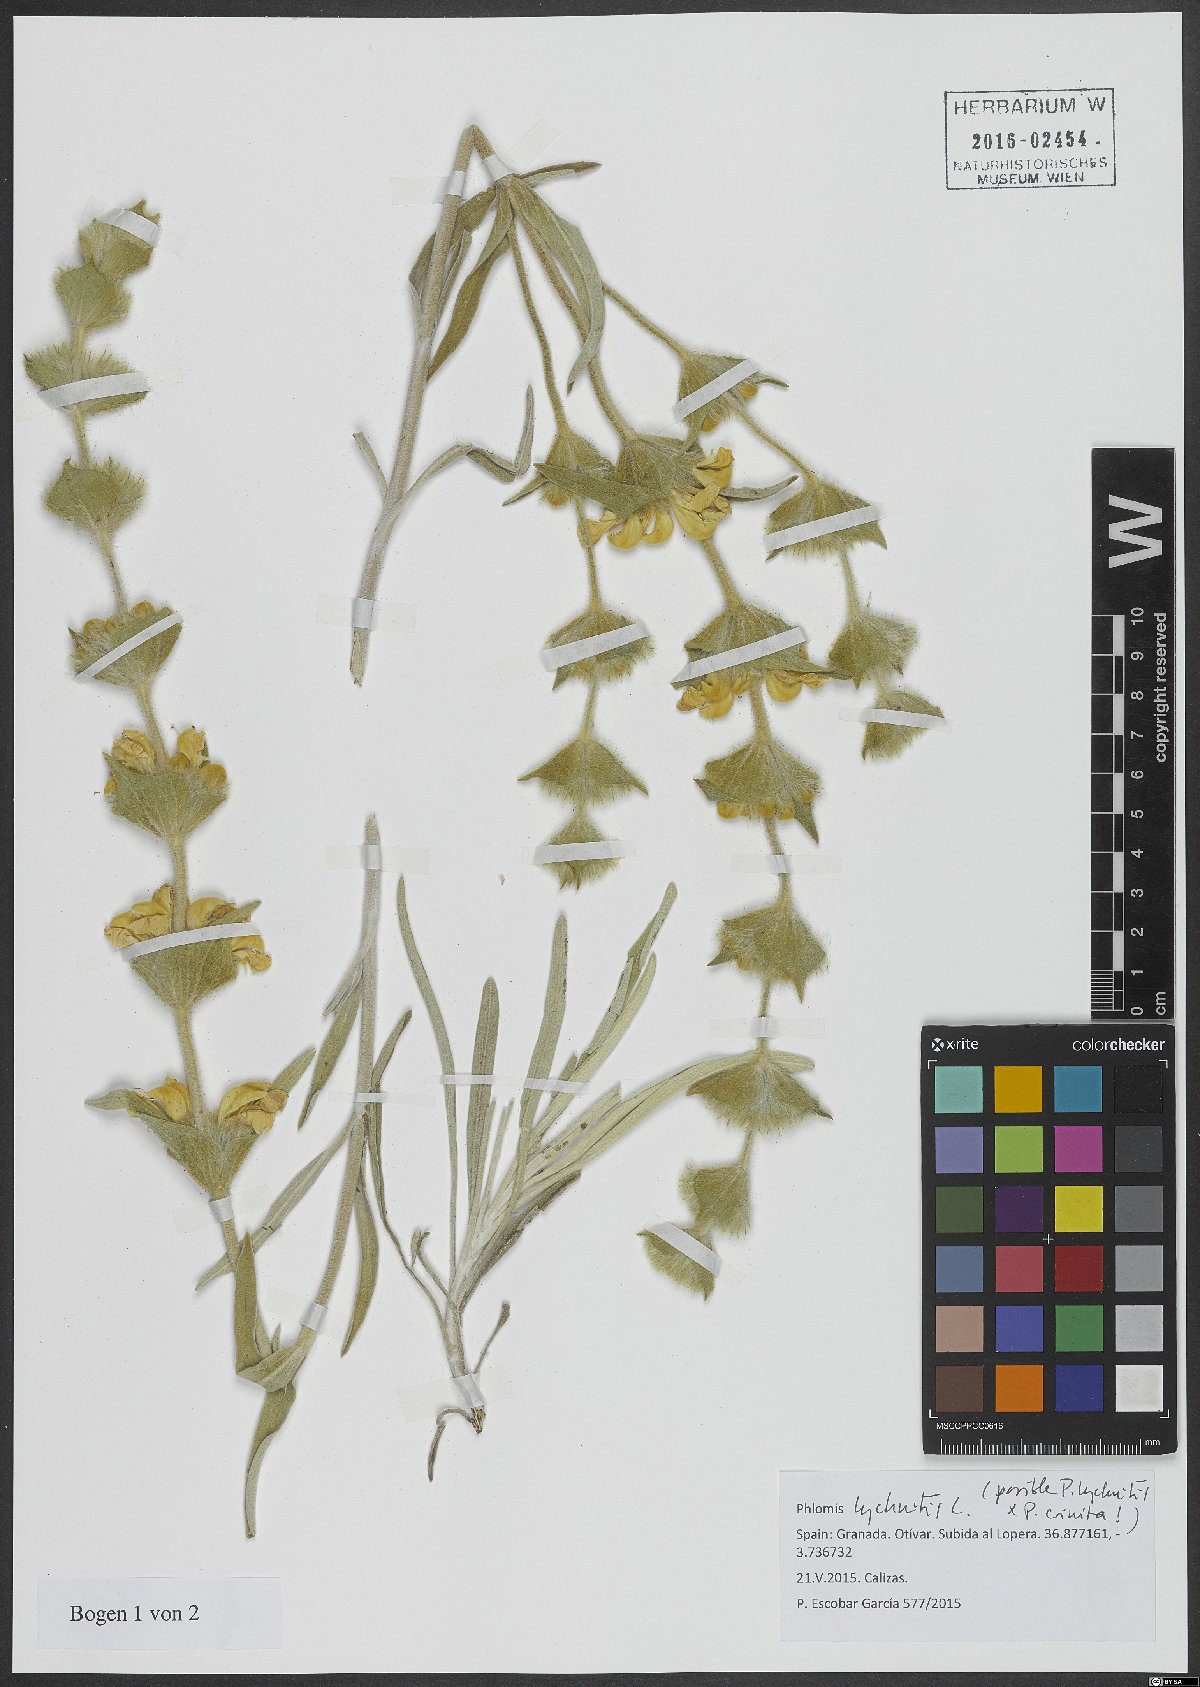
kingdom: Plantae
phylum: Tracheophyta
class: Magnoliopsida
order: Lamiales
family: Lamiaceae
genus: Phlomis
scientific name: Phlomis lychnitis
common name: Lampwickplant
